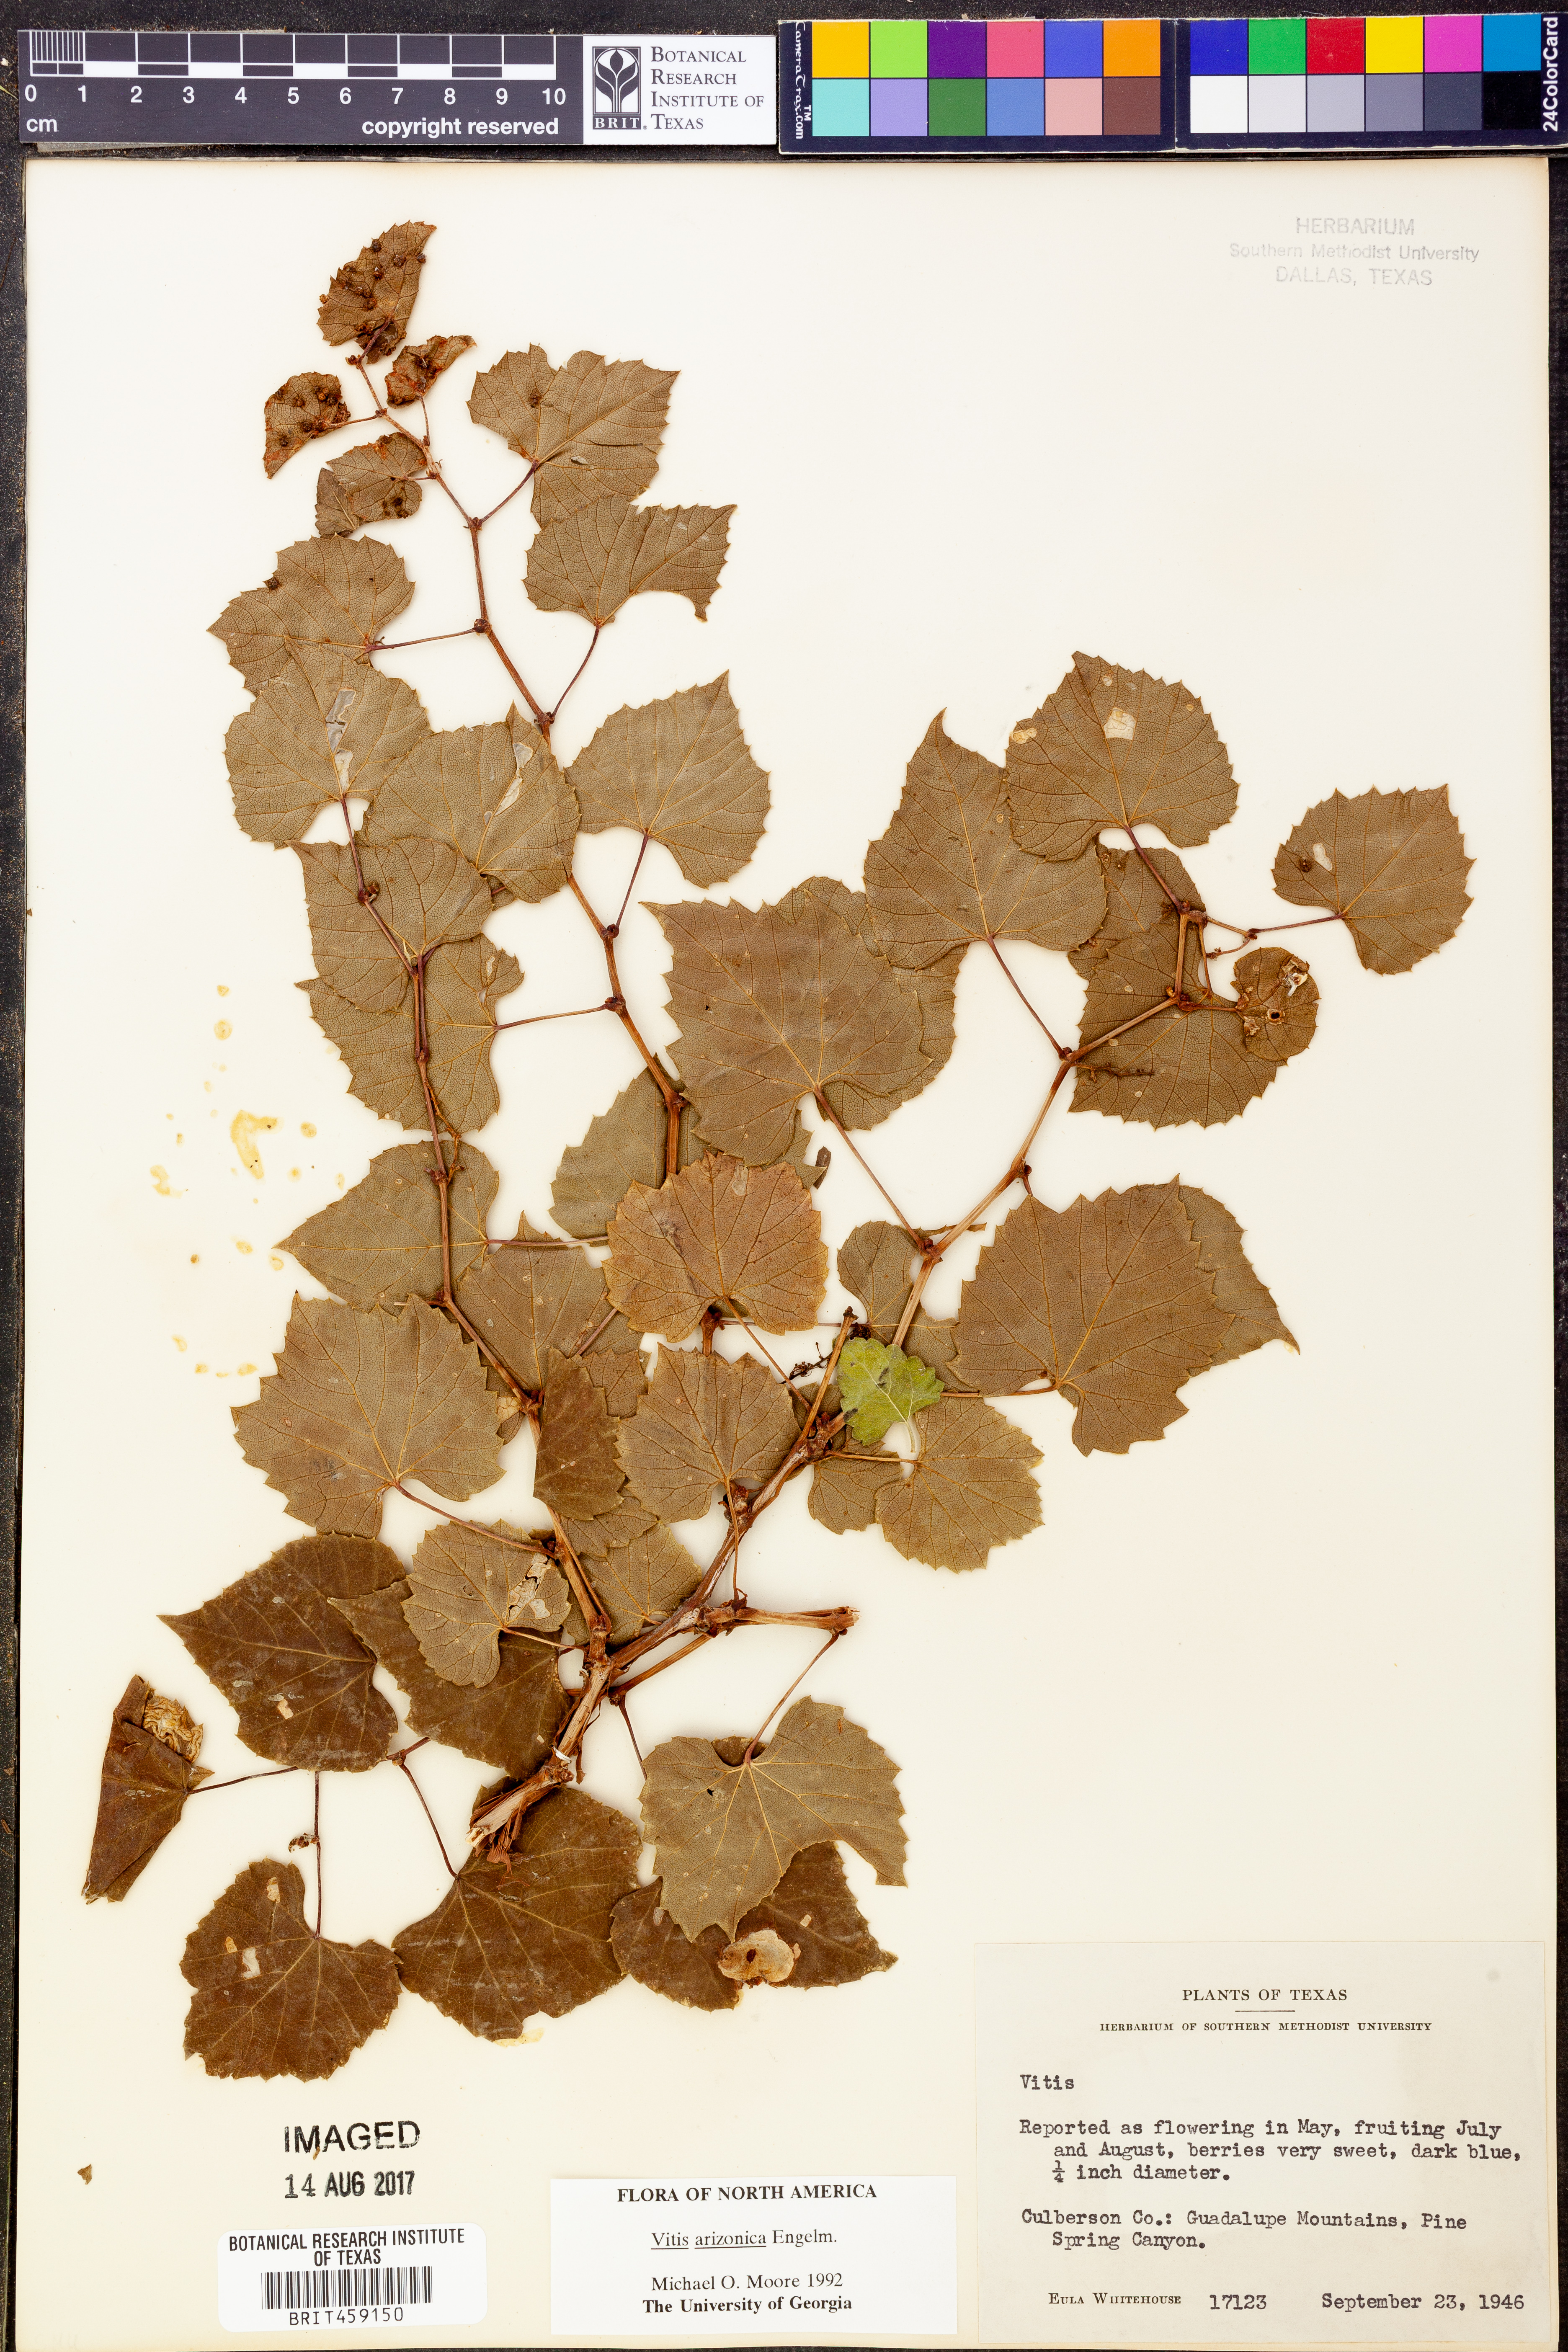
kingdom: Plantae
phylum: Tracheophyta
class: Magnoliopsida
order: Vitales
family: Vitaceae
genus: Vitis
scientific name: Vitis arizonica
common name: Canyon grape
